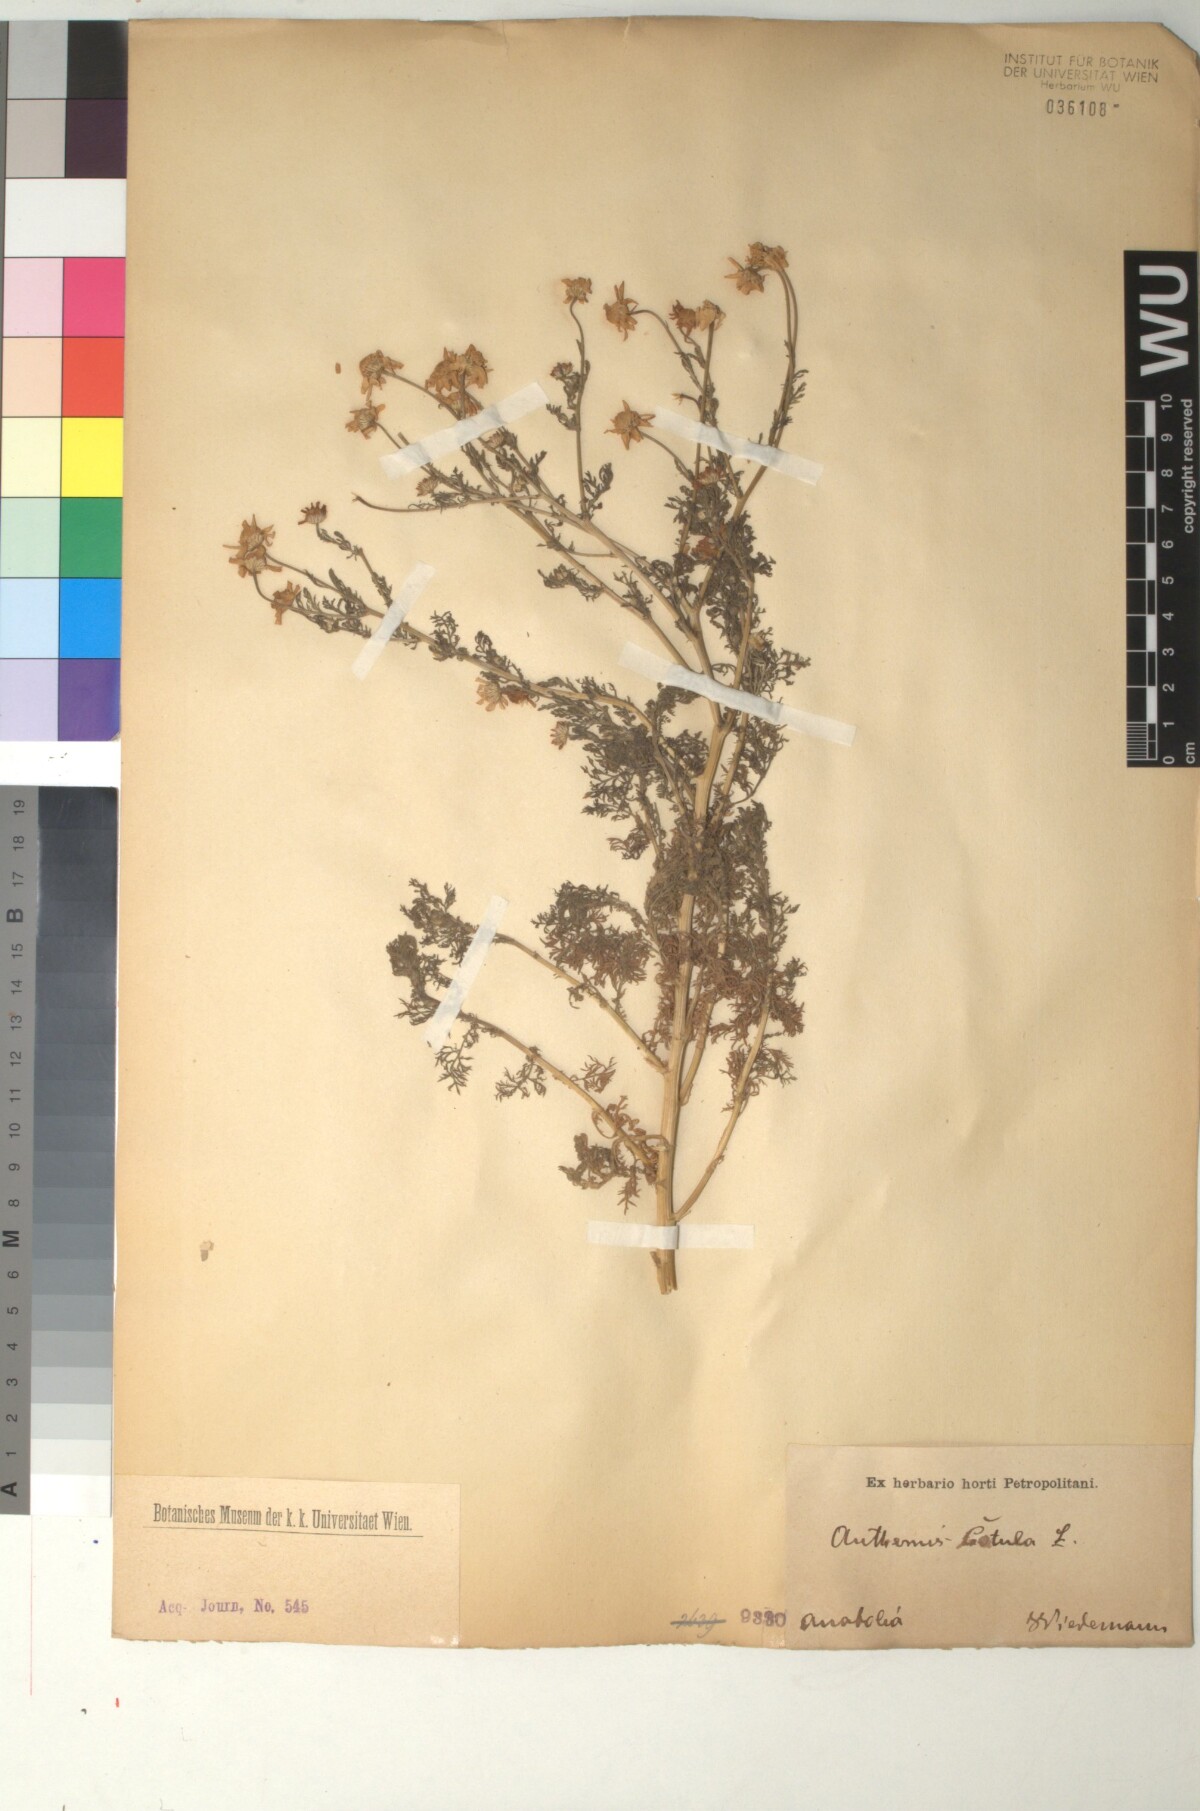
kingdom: Plantae
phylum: Tracheophyta
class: Magnoliopsida
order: Asterales
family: Asteraceae
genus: Anthemis
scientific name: Anthemis cotula
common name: Stinking chamomile
